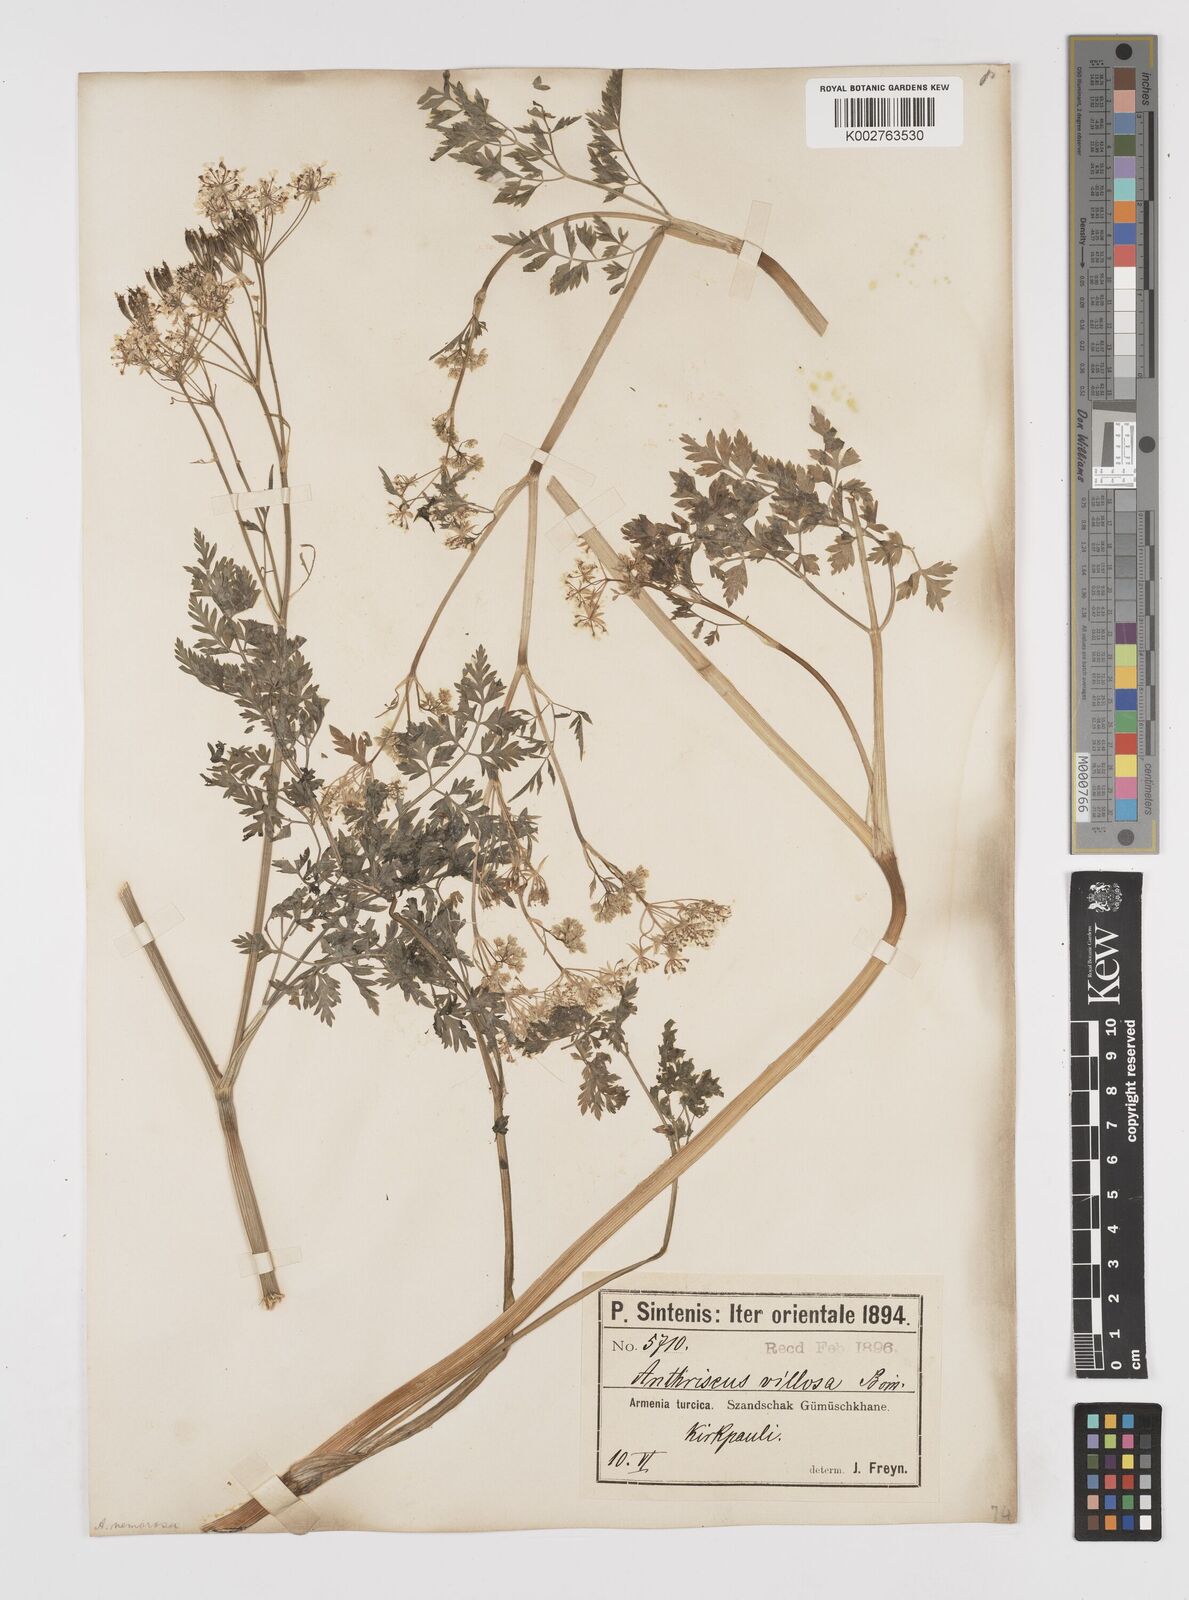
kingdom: Plantae
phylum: Tracheophyta
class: Magnoliopsida
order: Apiales
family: Apiaceae
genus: Anthriscus
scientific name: Anthriscus sylvestris
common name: Cow parsley
